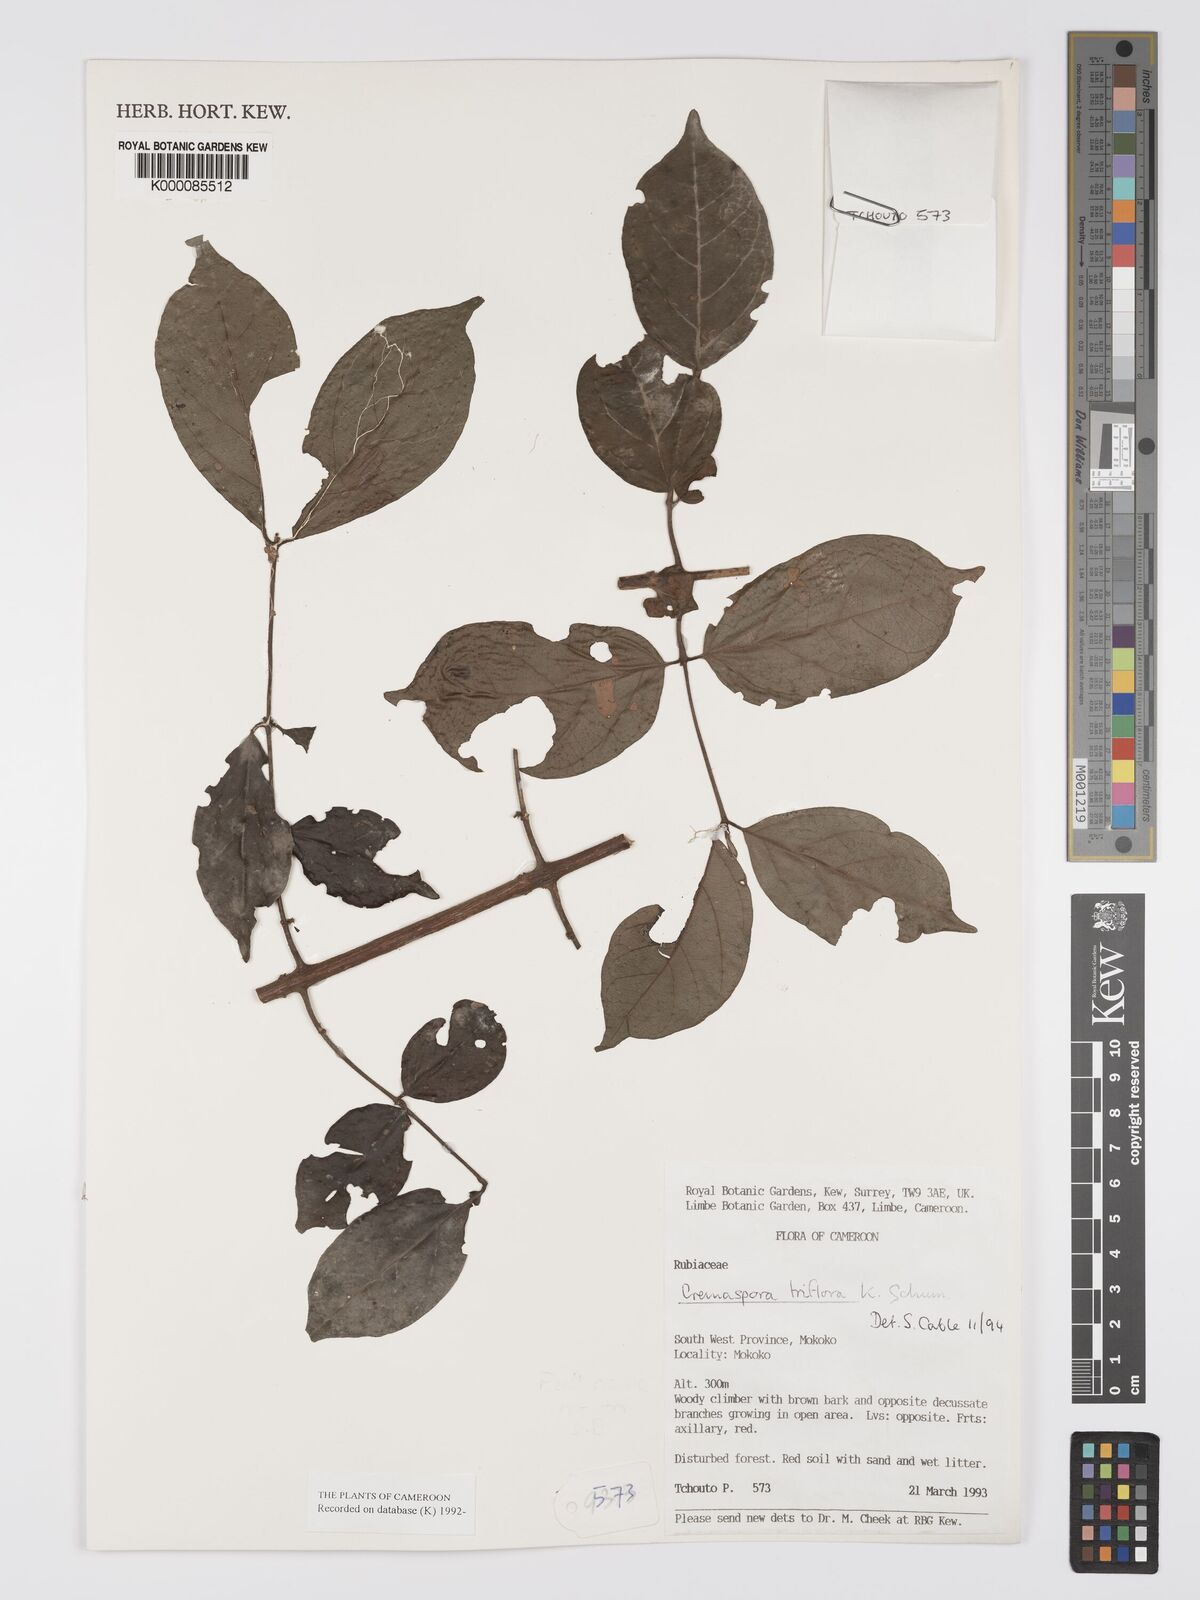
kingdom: Plantae
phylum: Tracheophyta
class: Magnoliopsida
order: Gentianales
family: Rubiaceae
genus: Cremaspora
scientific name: Cremaspora triflora
